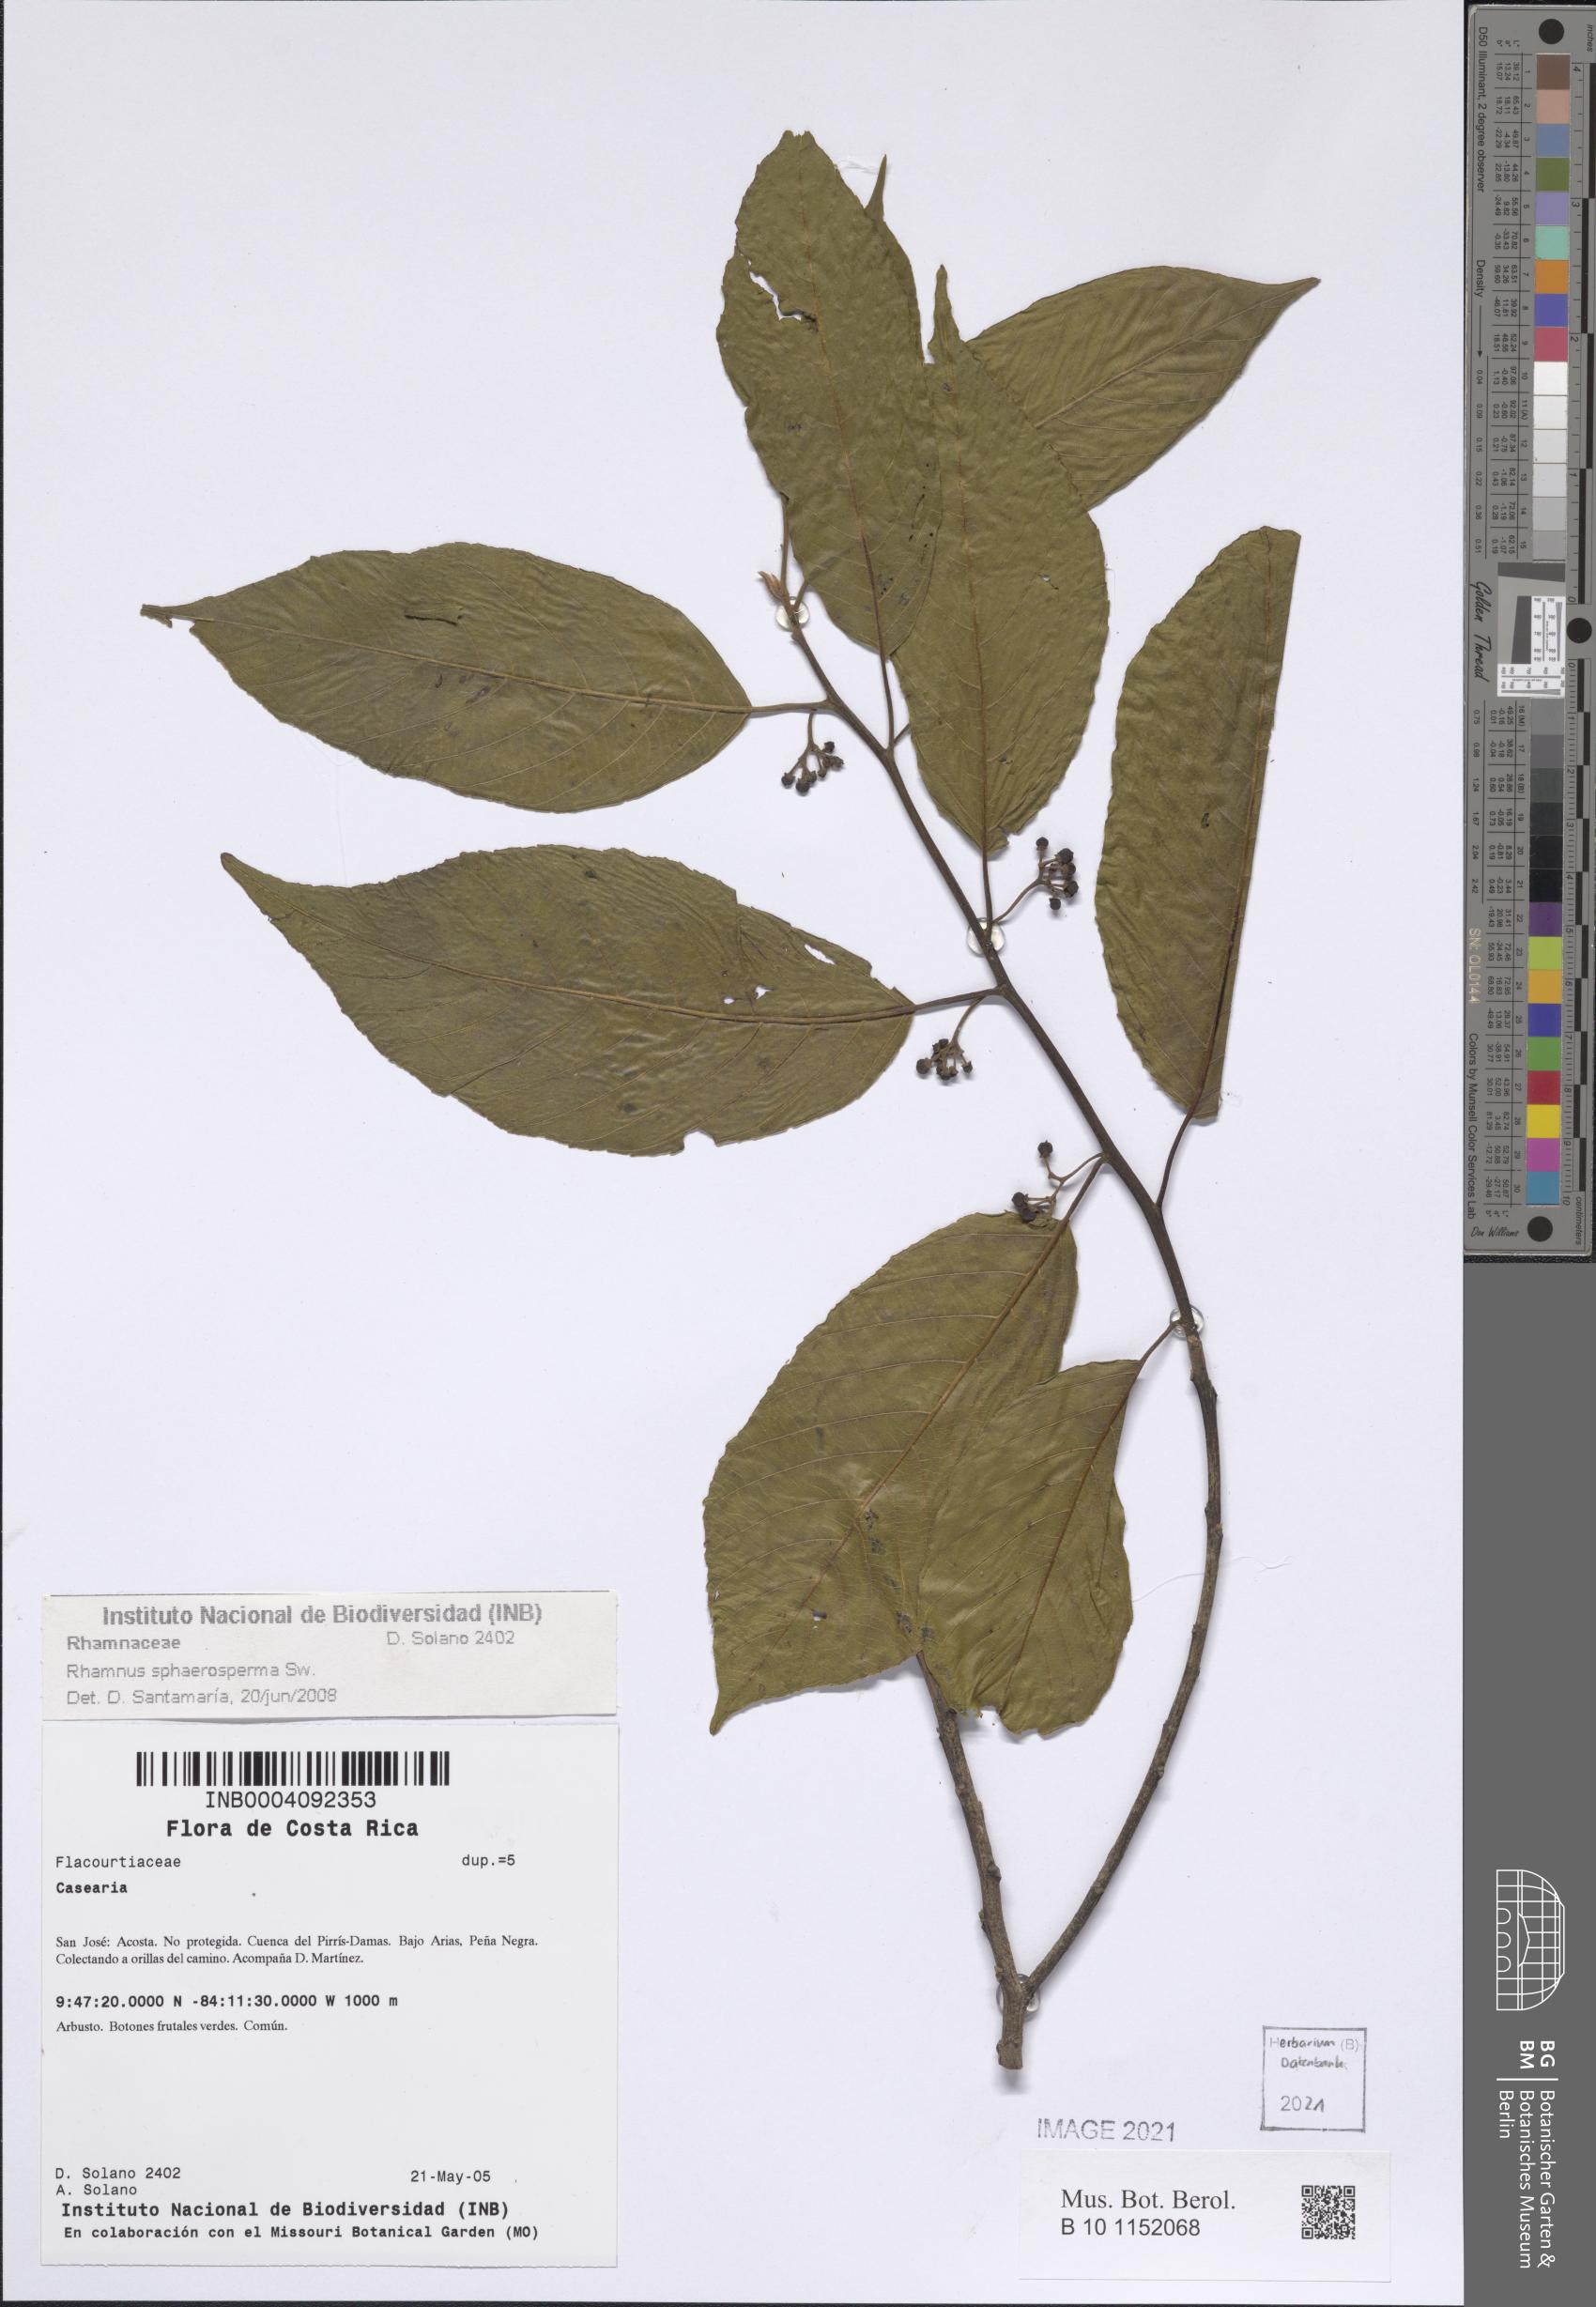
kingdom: Plantae
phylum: Tracheophyta
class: Magnoliopsida
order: Rosales
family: Rhamnaceae
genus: Frangula
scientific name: Frangula pendula
